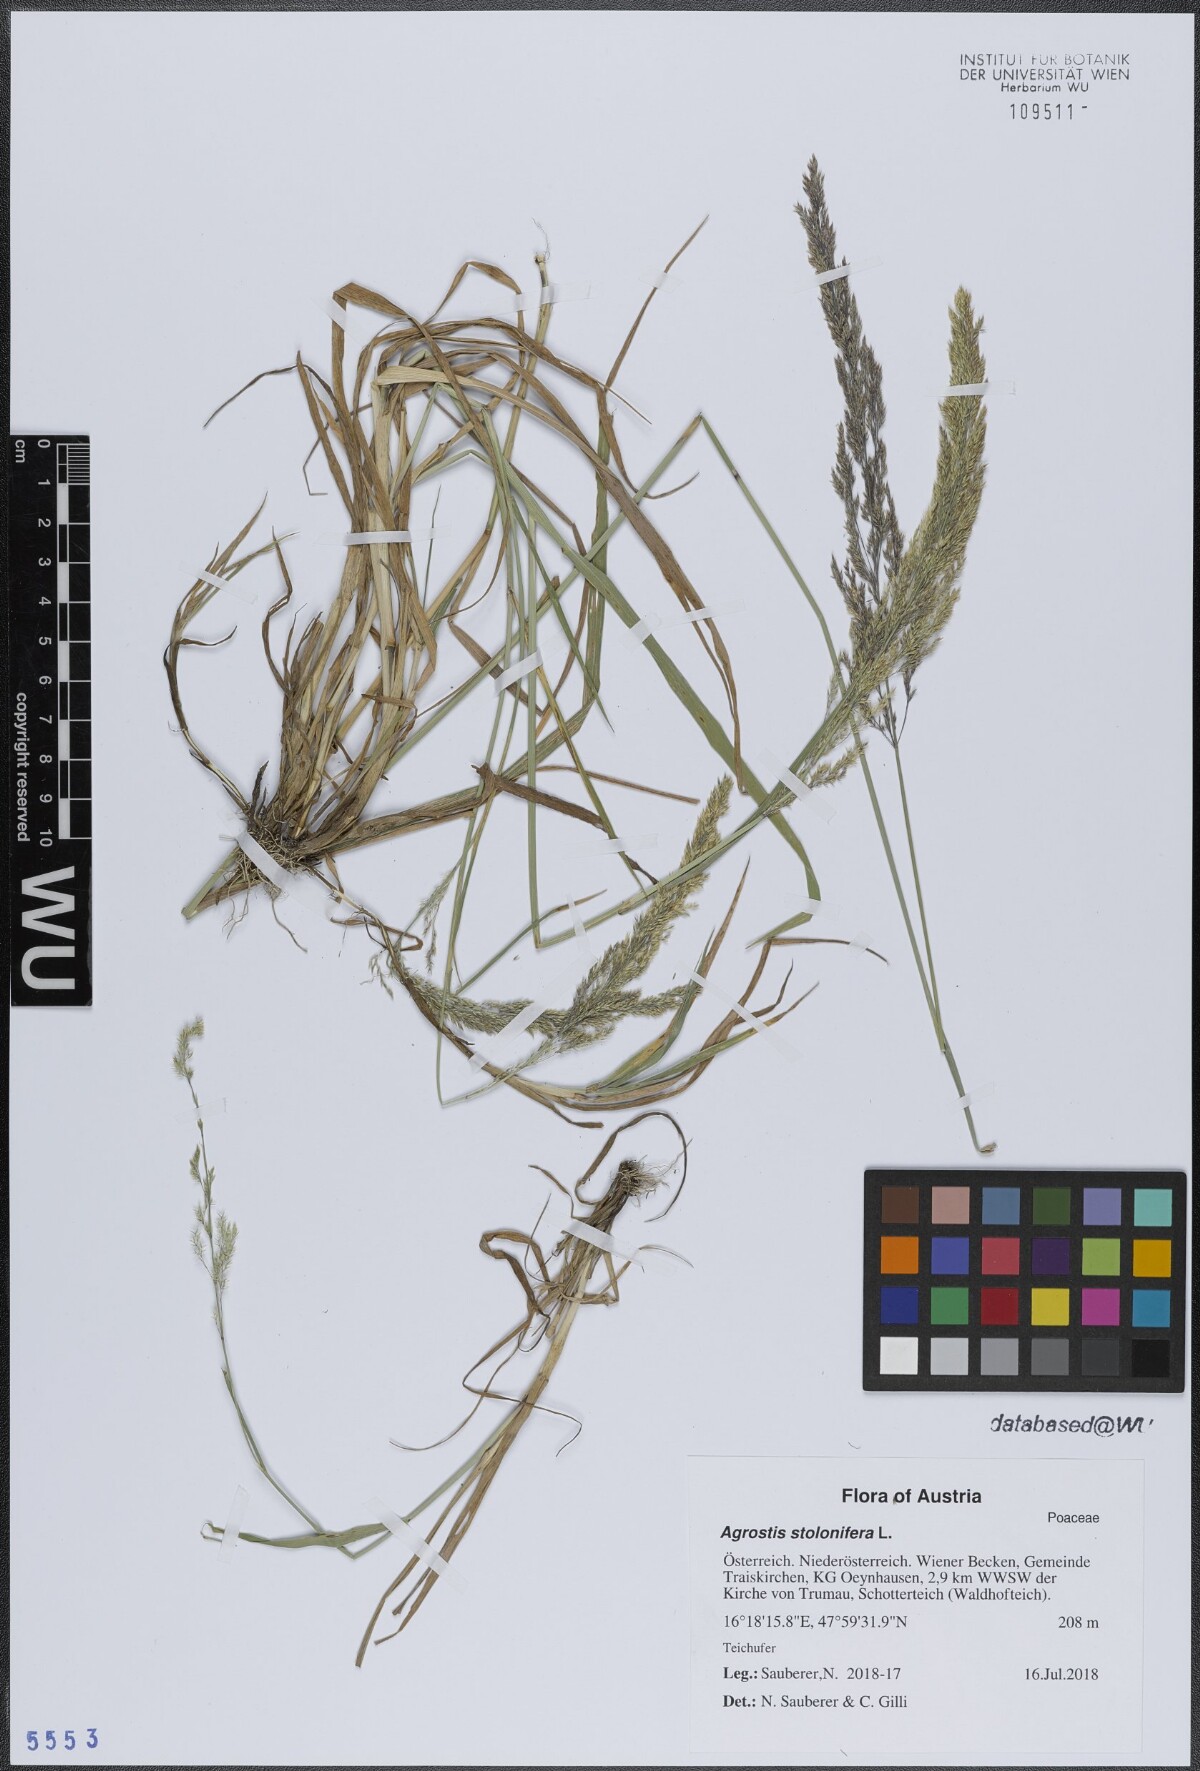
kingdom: Plantae
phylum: Tracheophyta
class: Liliopsida
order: Poales
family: Poaceae
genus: Agrostis
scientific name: Agrostis stolonifera
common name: Creeping bentgrass
